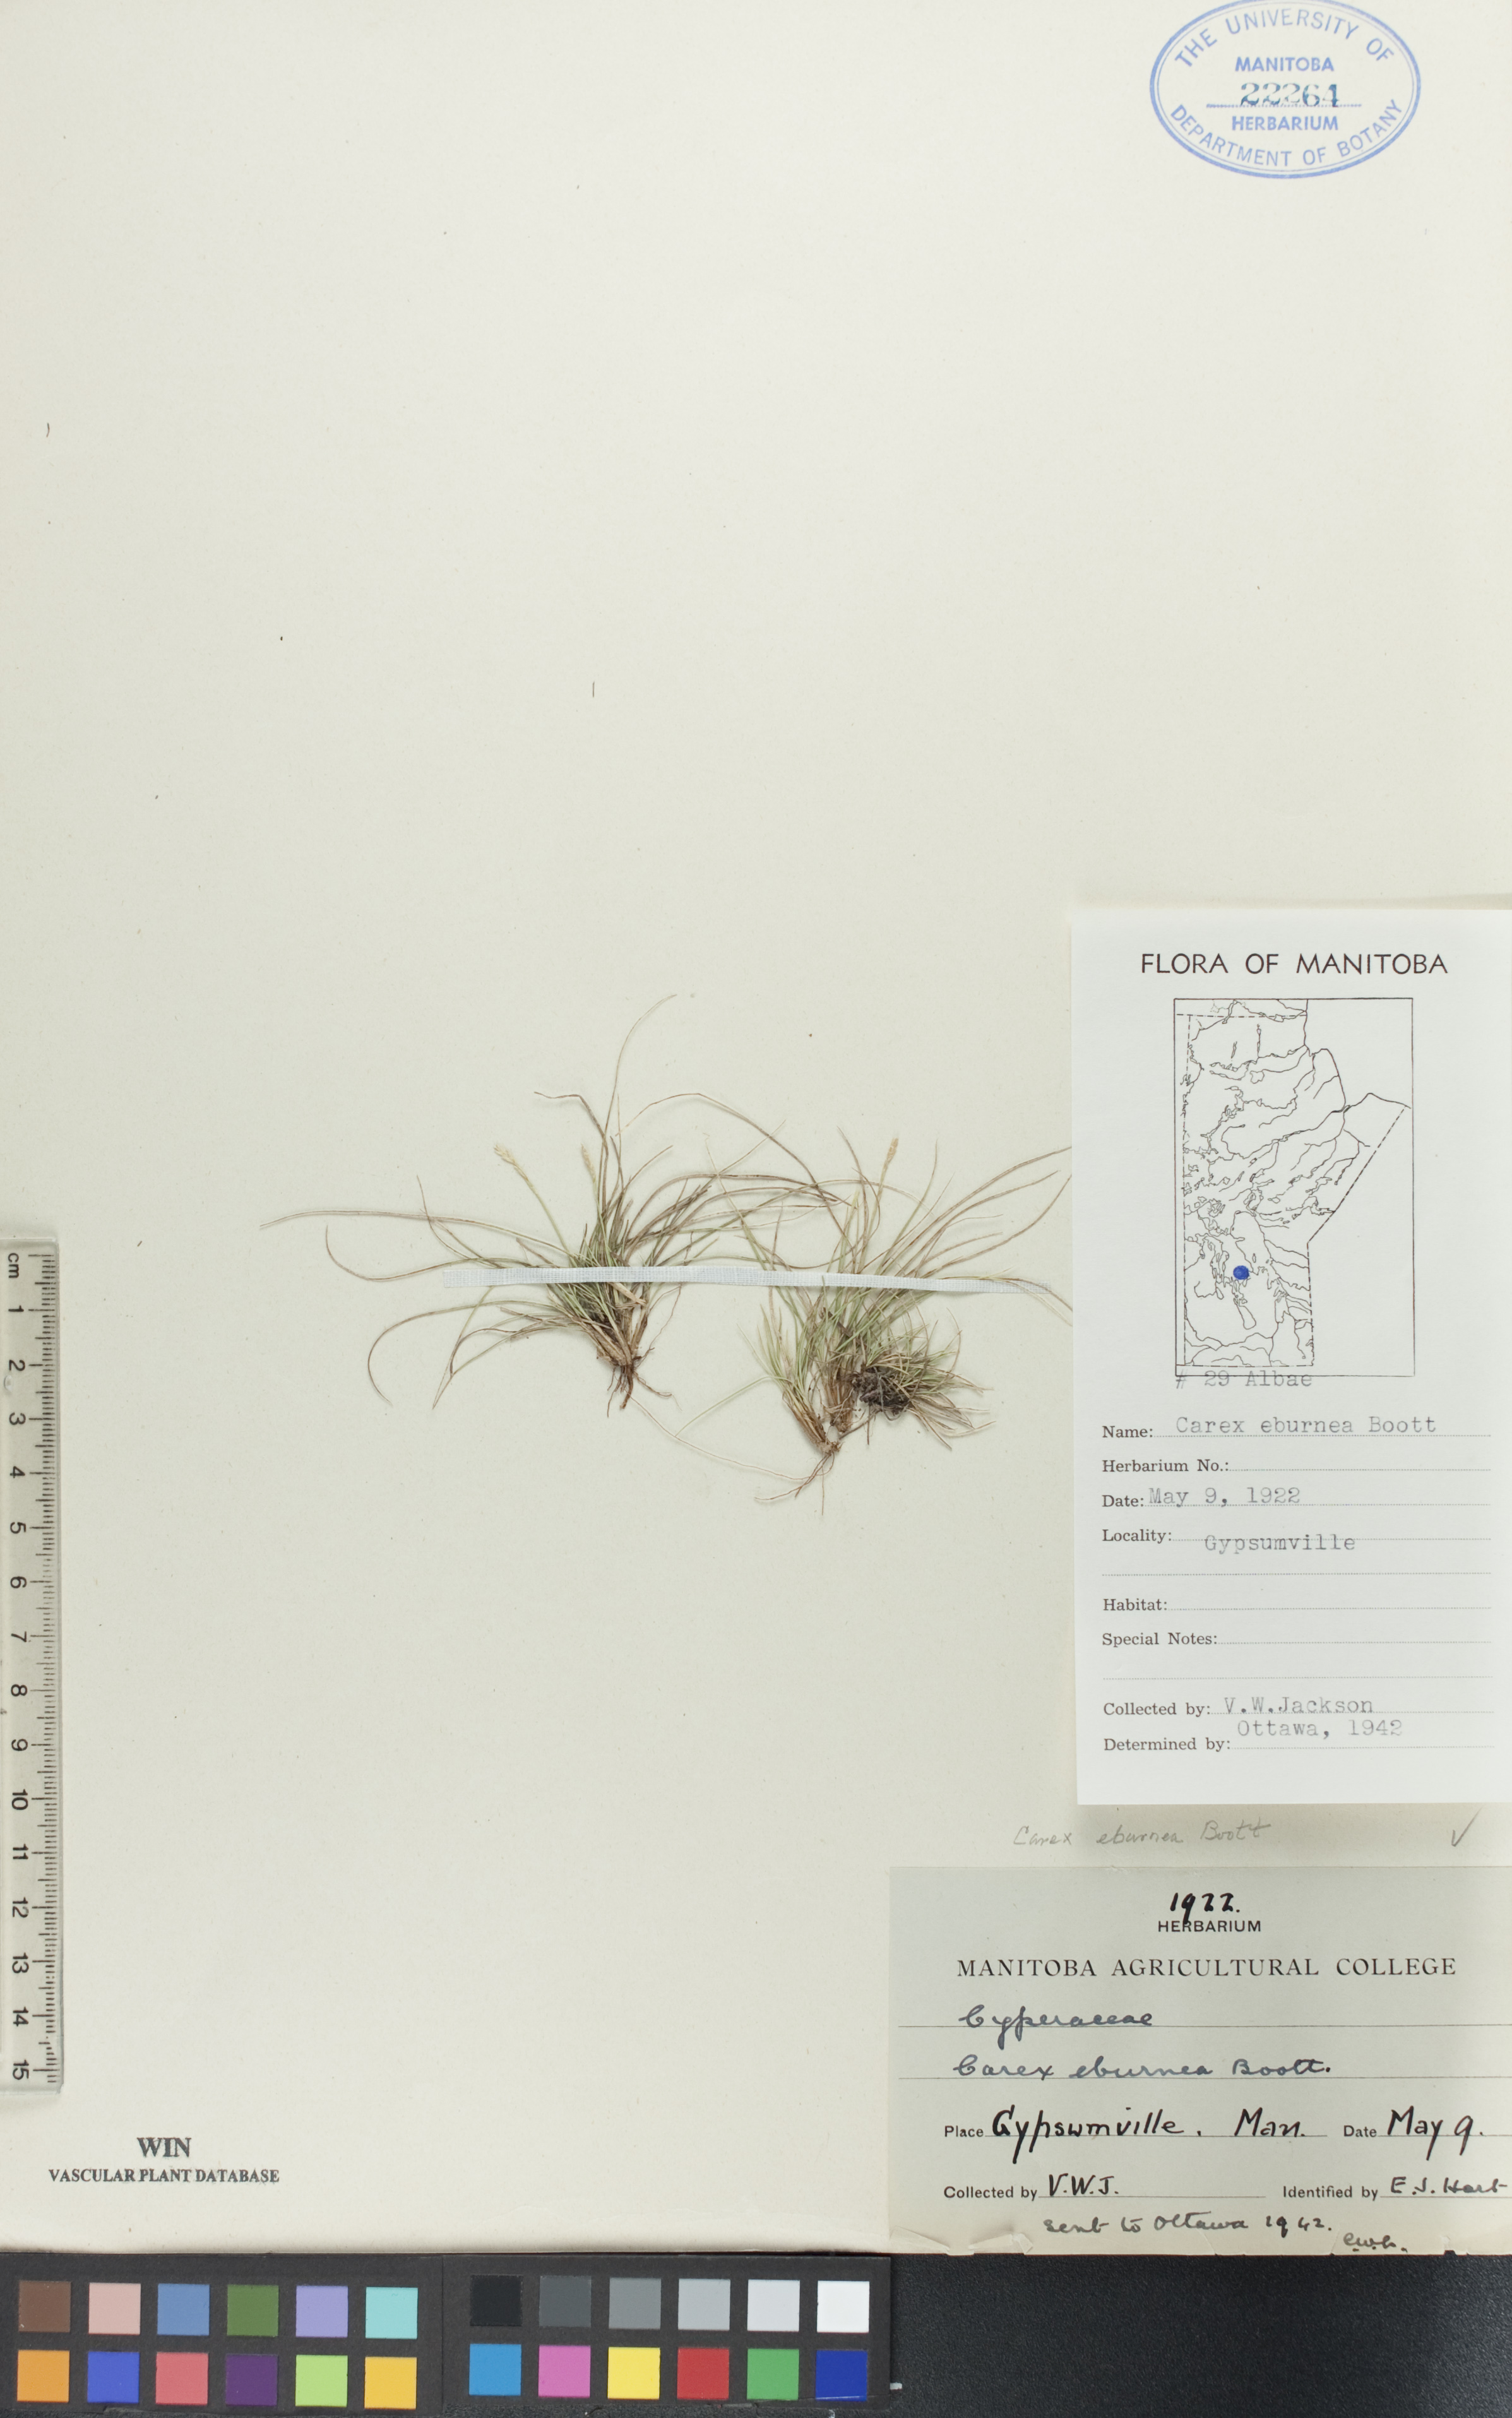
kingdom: Plantae
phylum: Tracheophyta
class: Liliopsida
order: Poales
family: Cyperaceae
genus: Carex
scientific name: Carex eburnea
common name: Bristle-leaved sedge
